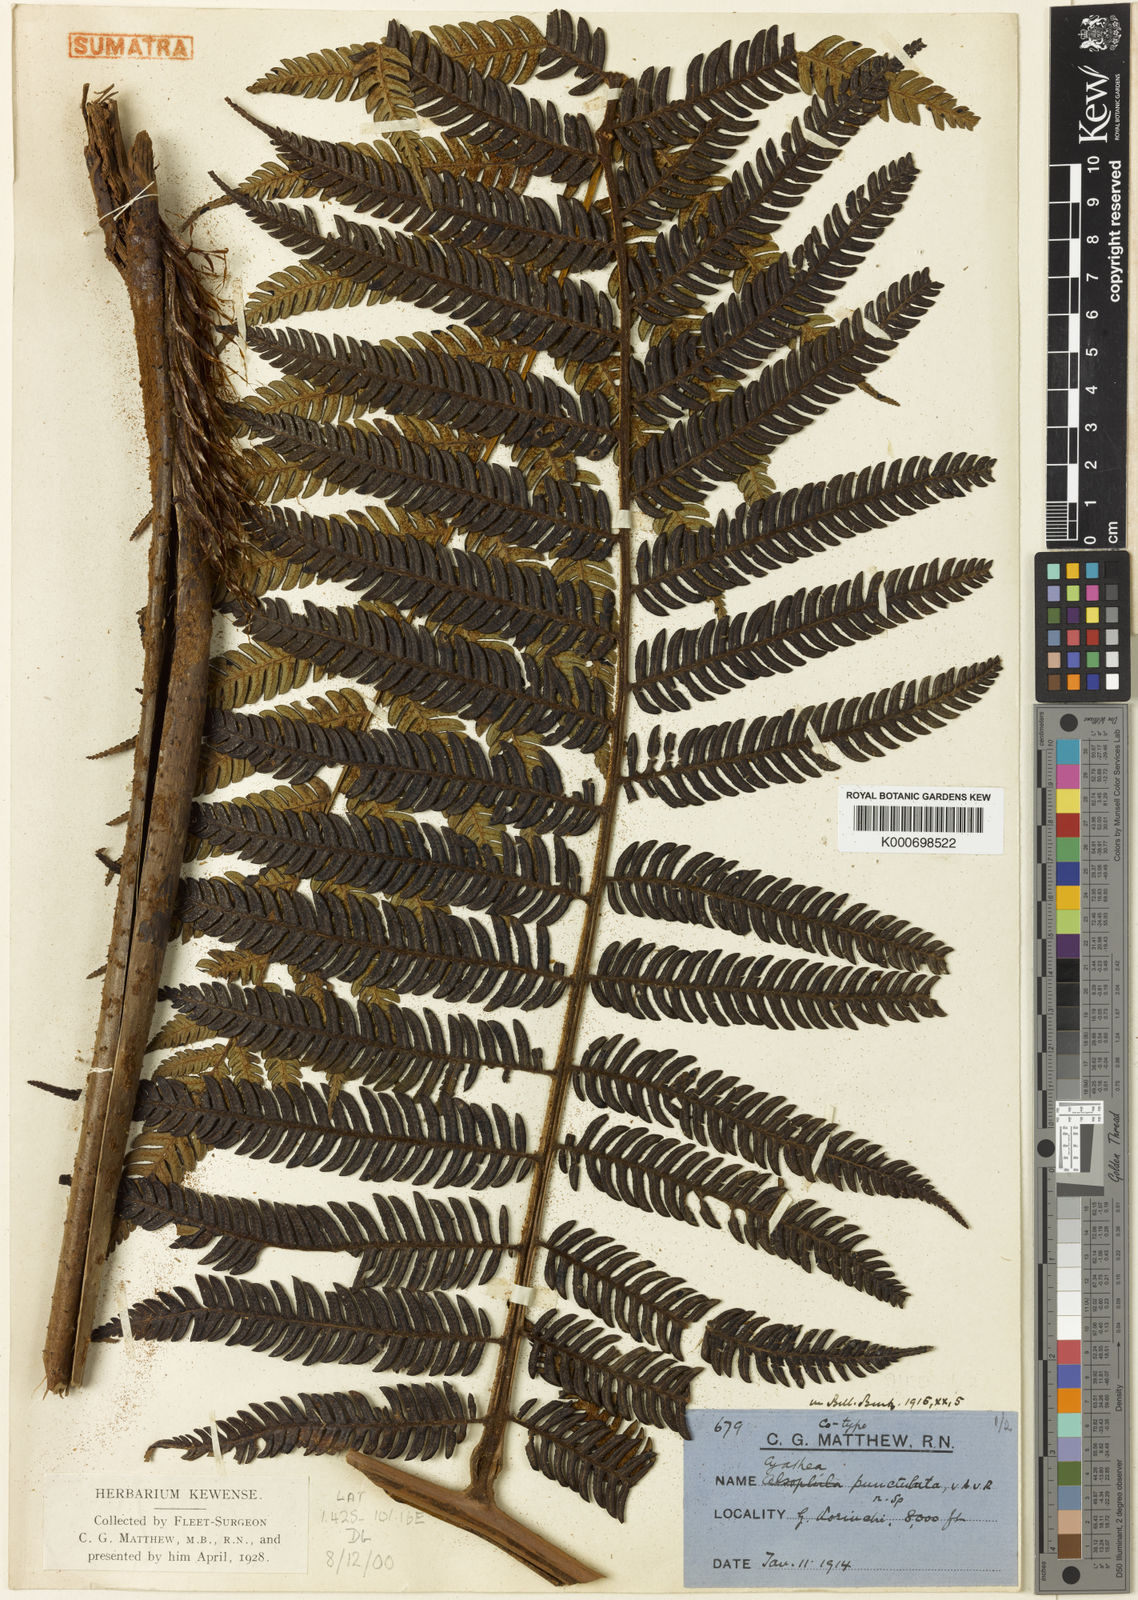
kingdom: Plantae
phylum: Tracheophyta
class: Polypodiopsida
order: Cyatheales
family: Cyatheaceae
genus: Alsophila
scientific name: Alsophila punctulata
